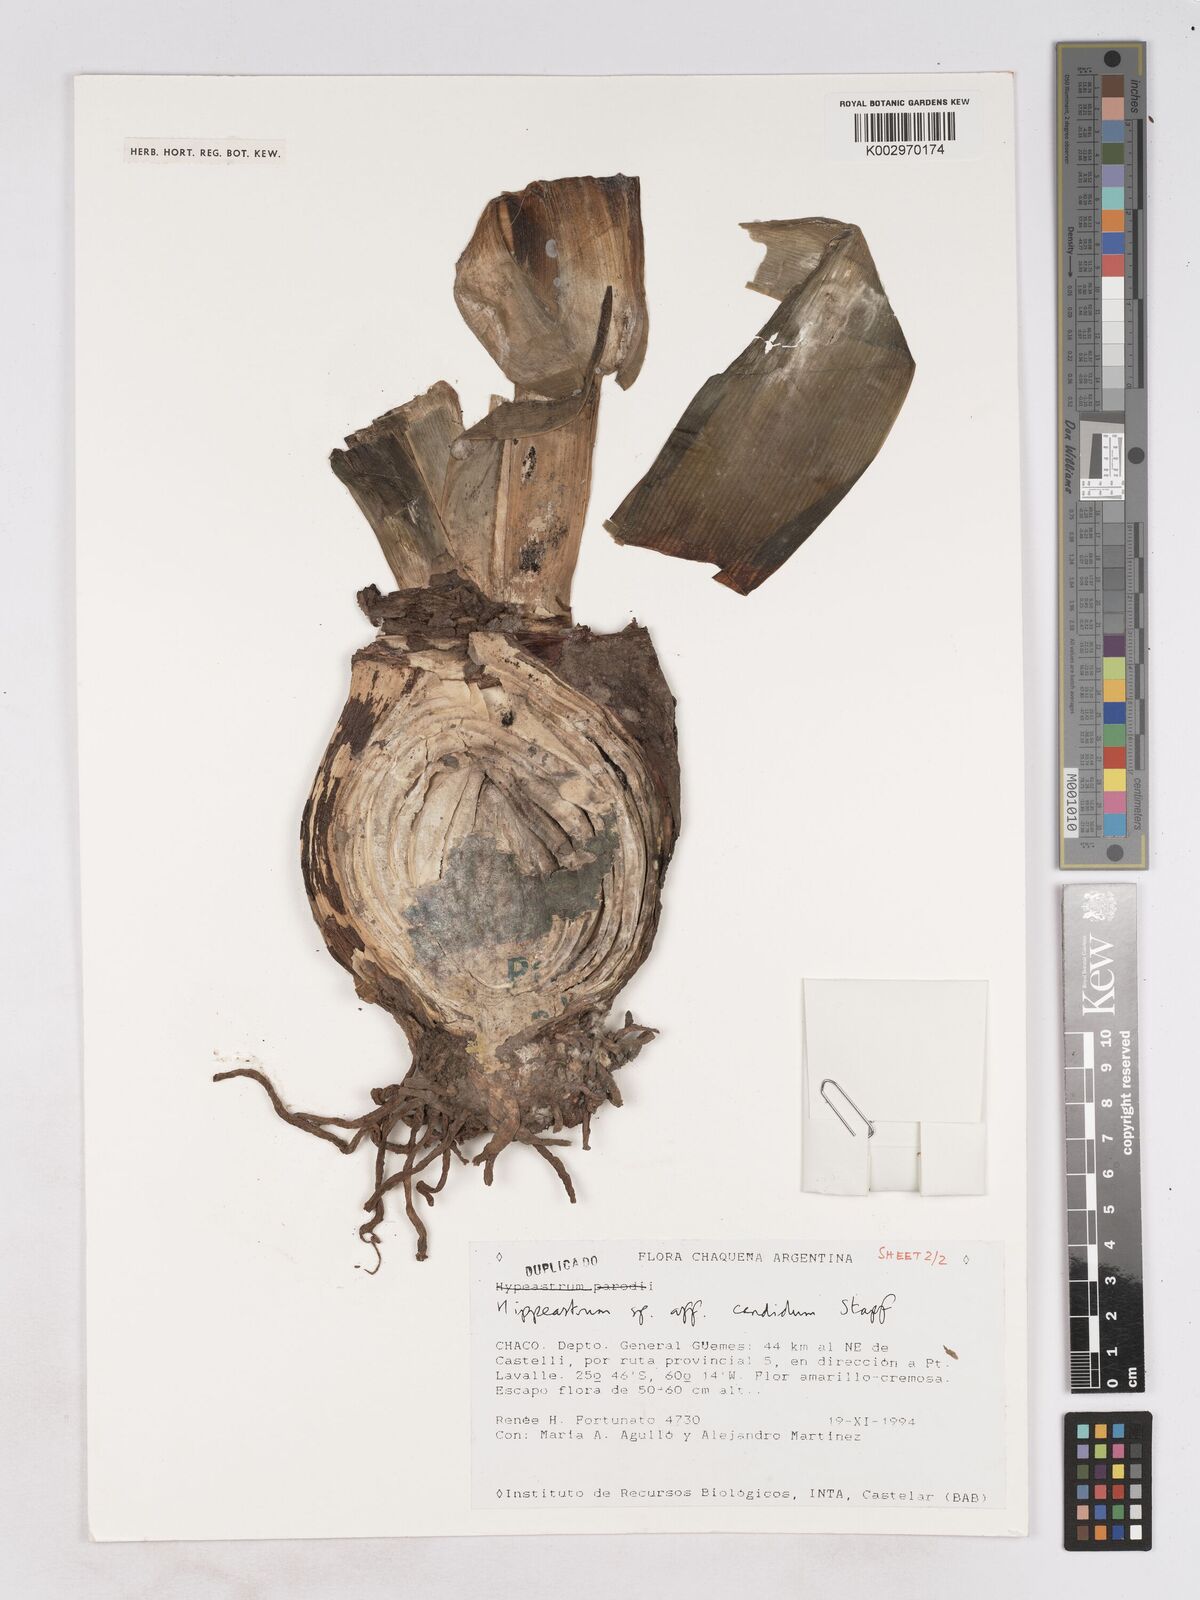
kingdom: Plantae
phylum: Tracheophyta
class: Liliopsida
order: Asparagales
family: Amaryllidaceae
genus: Hippeastrum
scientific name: Hippeastrum argentinum
